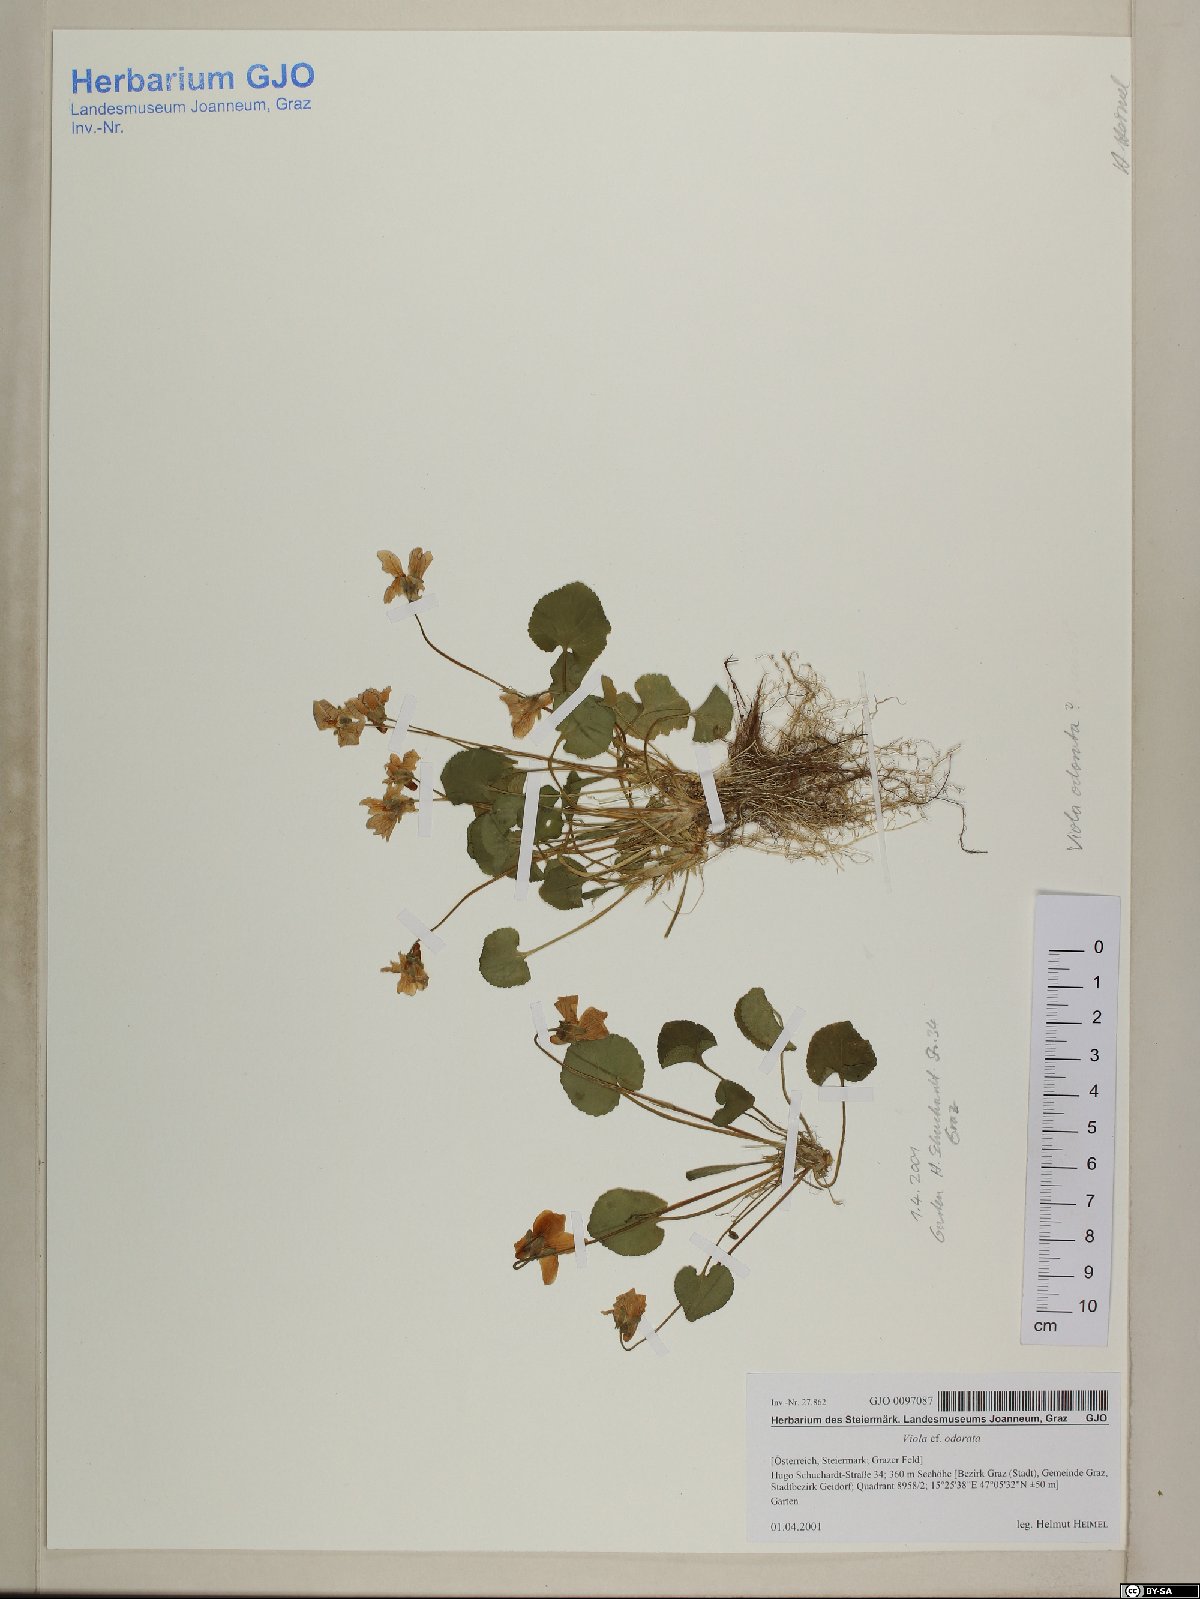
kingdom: Plantae
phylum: Tracheophyta
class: Magnoliopsida
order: Malpighiales
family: Violaceae
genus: Viola
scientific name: Viola odorata
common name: Sweet violet
